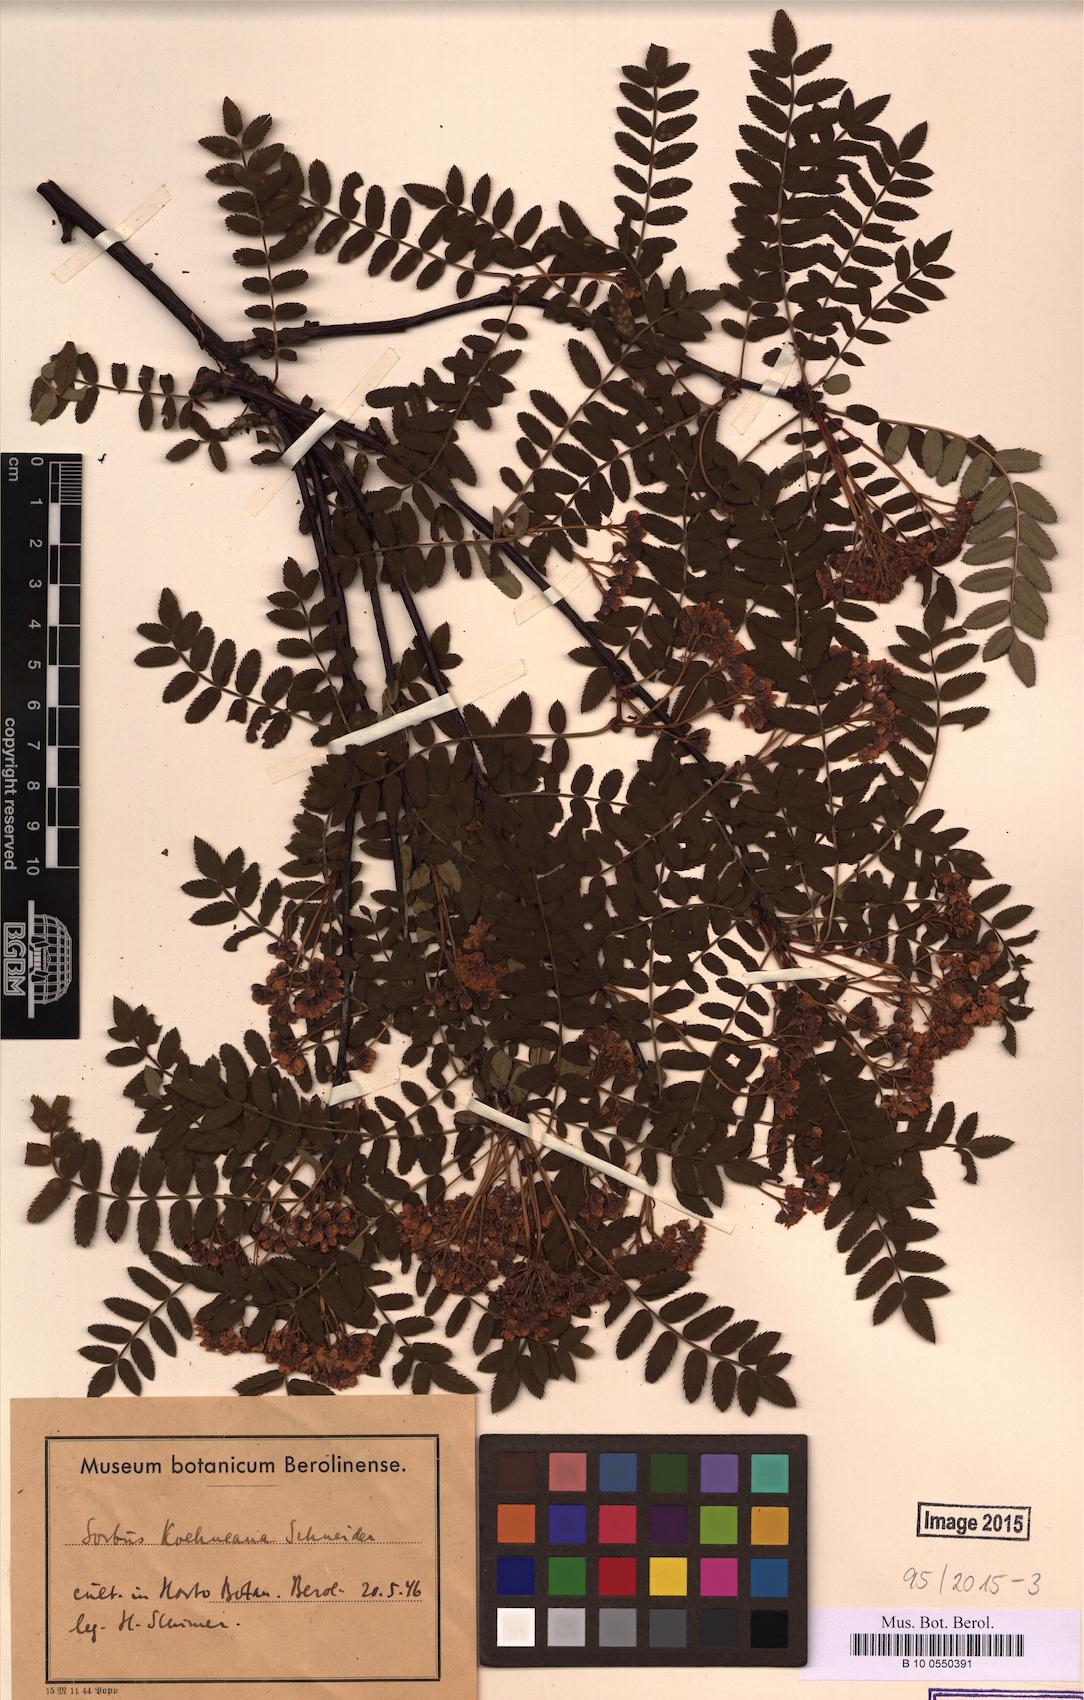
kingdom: Plantae
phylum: Tracheophyta
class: Magnoliopsida
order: Rosales
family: Rosaceae
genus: Sorbus
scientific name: Sorbus koehneana
